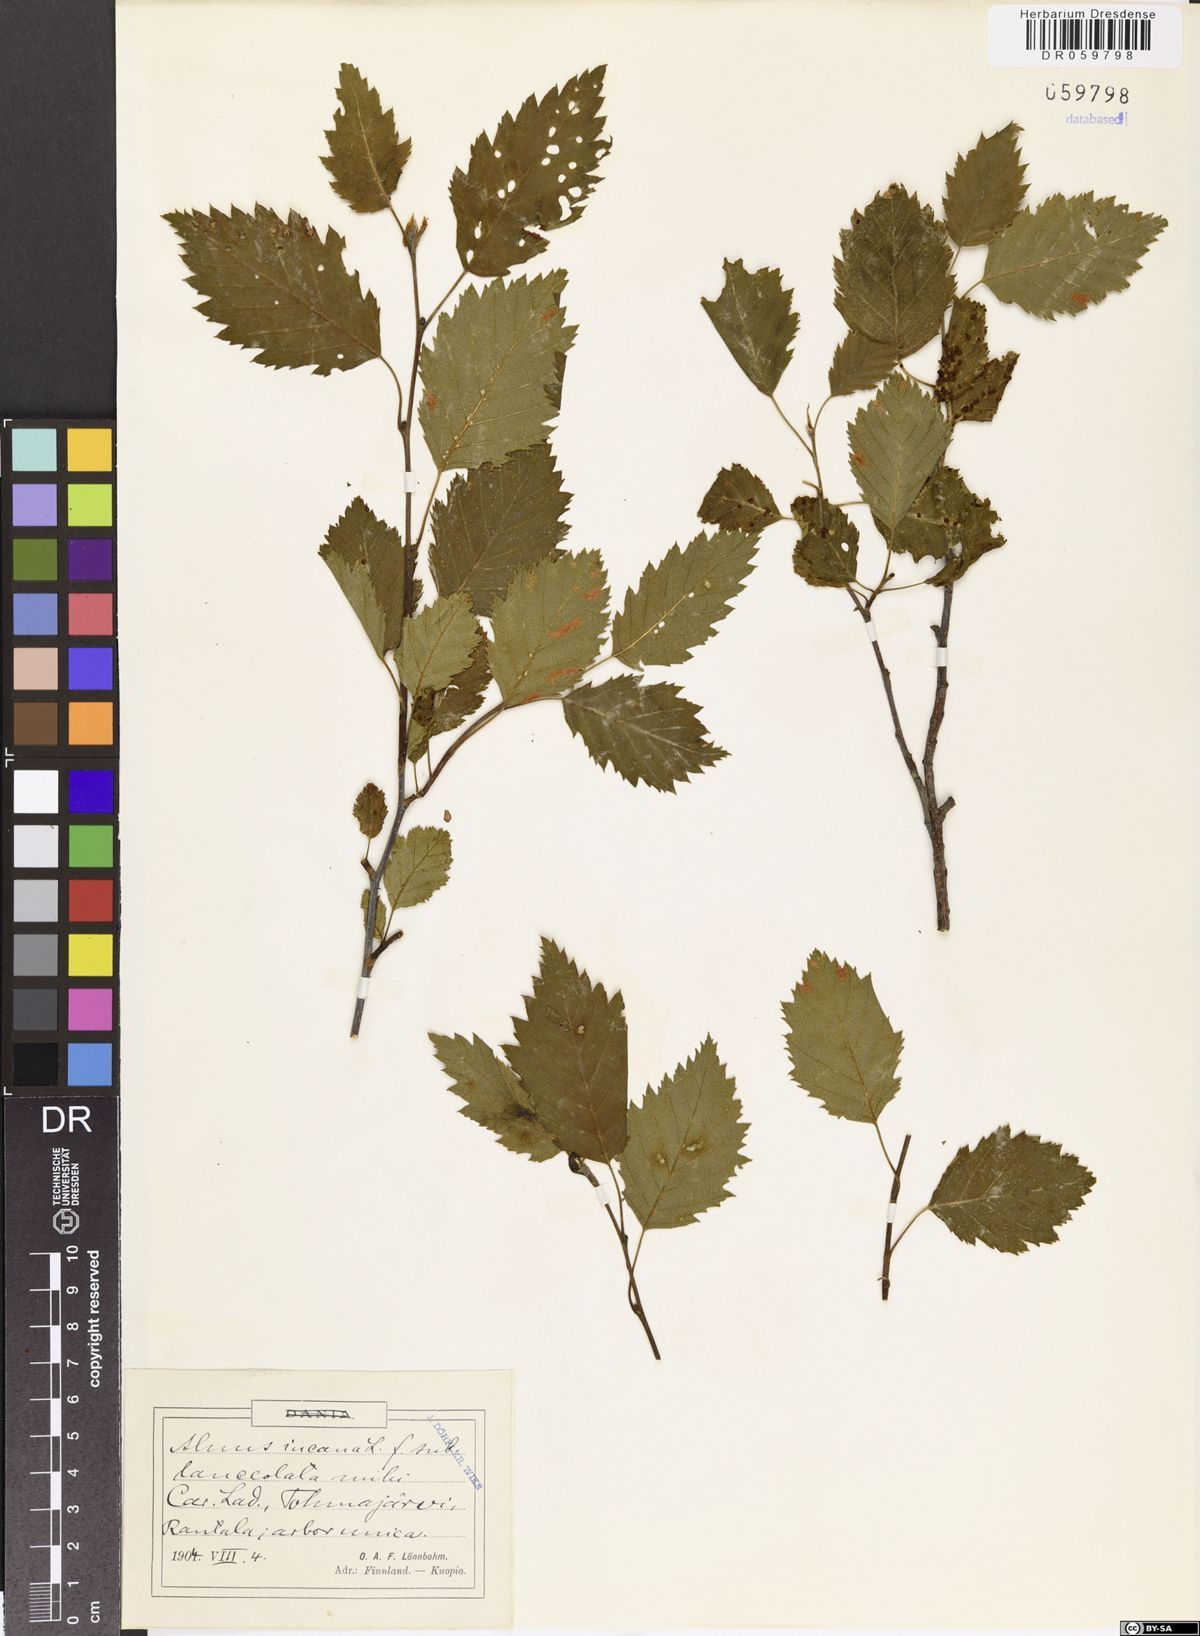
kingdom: Plantae
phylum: Tracheophyta
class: Magnoliopsida
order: Fagales
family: Betulaceae
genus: Alnus
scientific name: Alnus incana
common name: Grey alder
